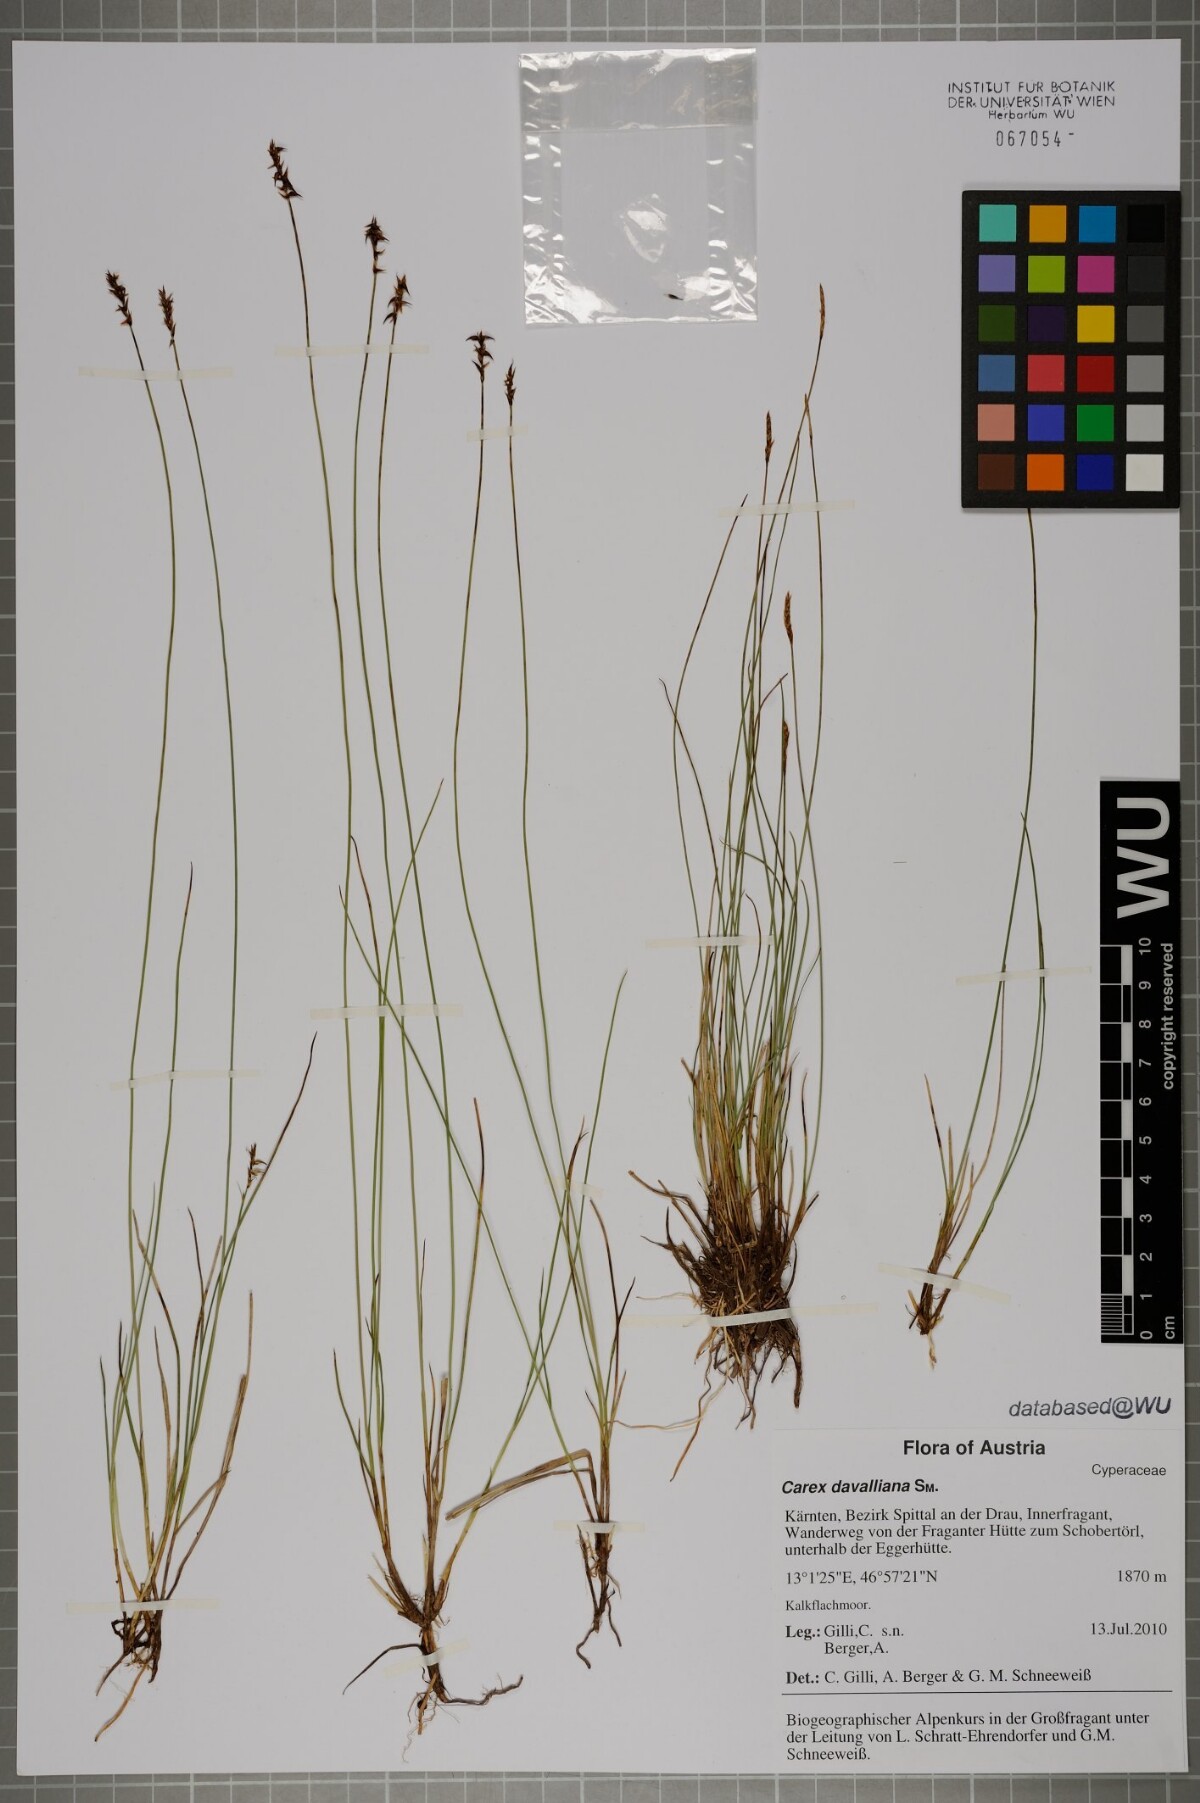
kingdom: Plantae
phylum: Tracheophyta
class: Liliopsida
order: Poales
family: Cyperaceae
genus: Carex
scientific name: Carex davalliana
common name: Davall's sedge
